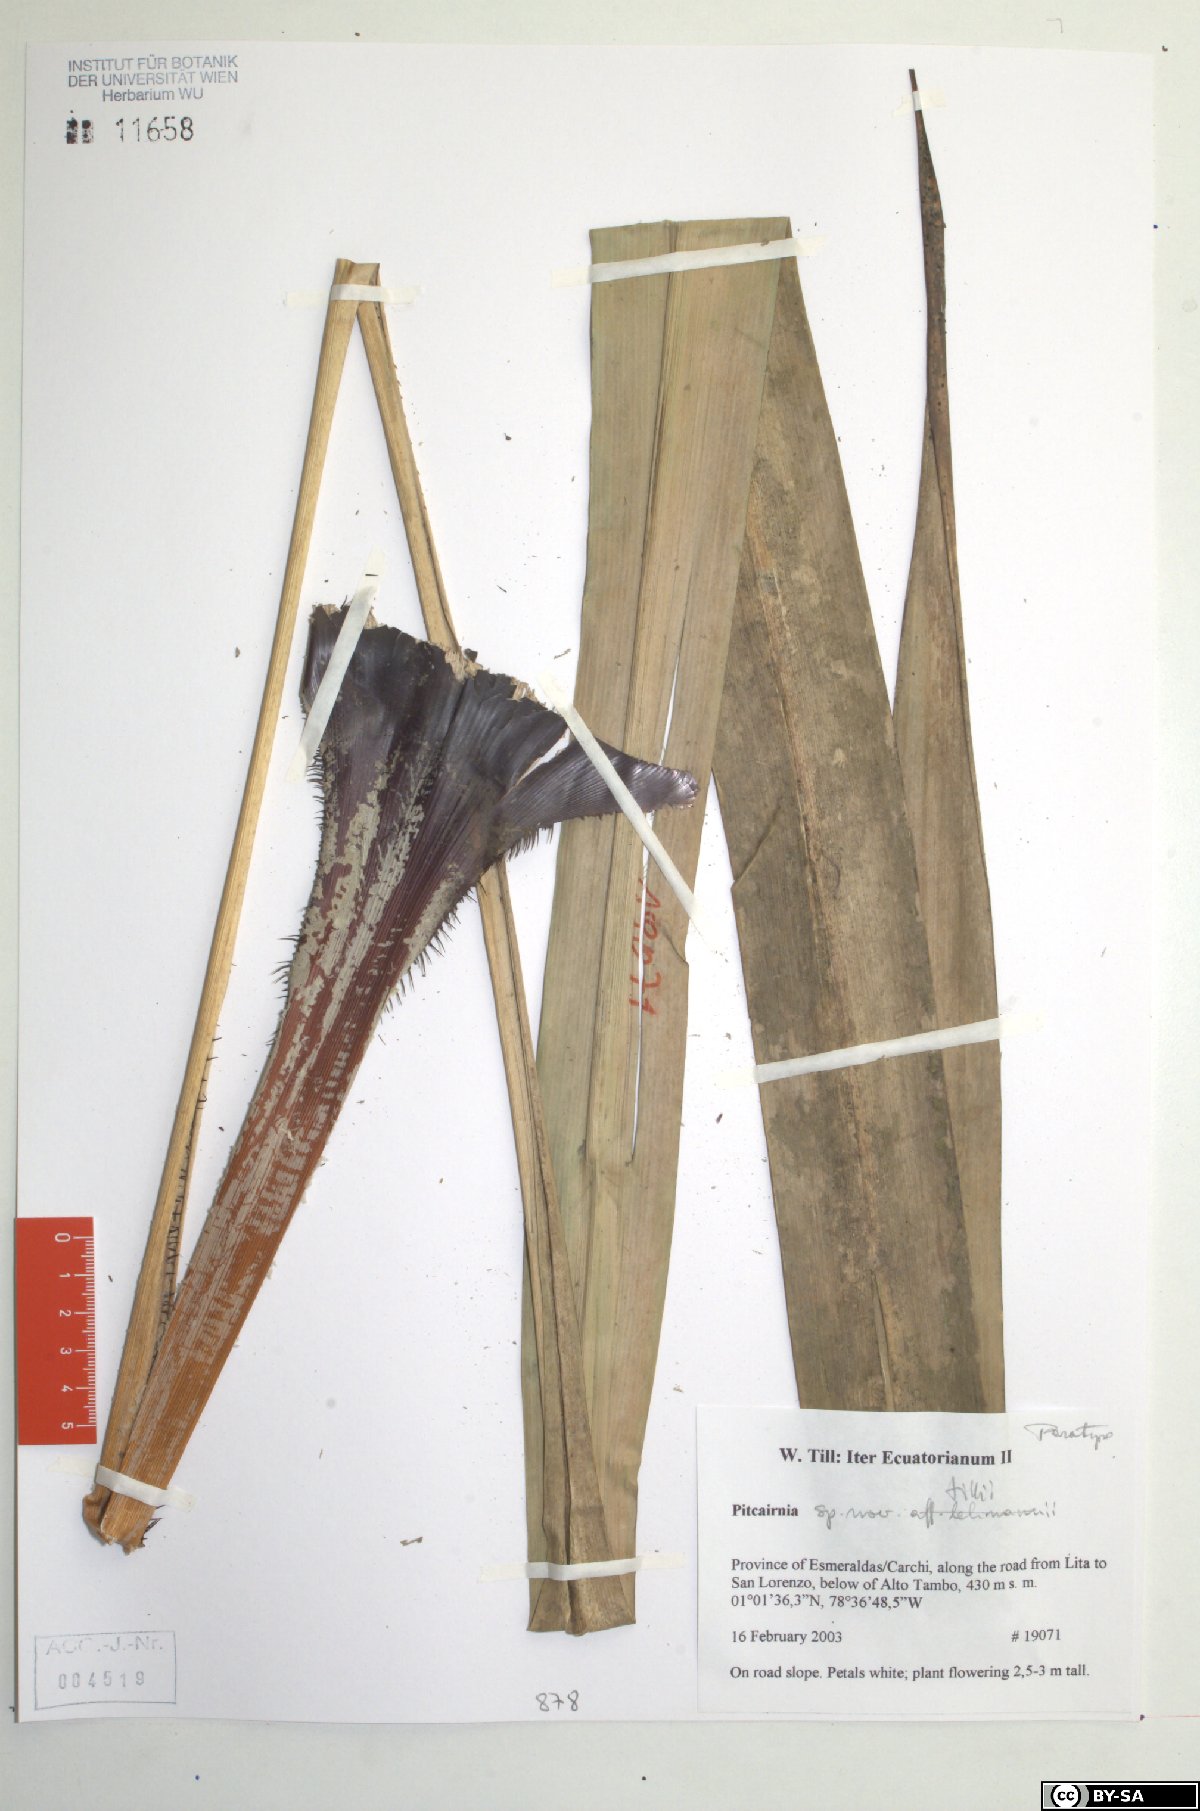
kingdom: Plantae
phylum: Tracheophyta
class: Liliopsida
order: Poales
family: Bromeliaceae
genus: Pitcairnia
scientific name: Pitcairnia tillii
